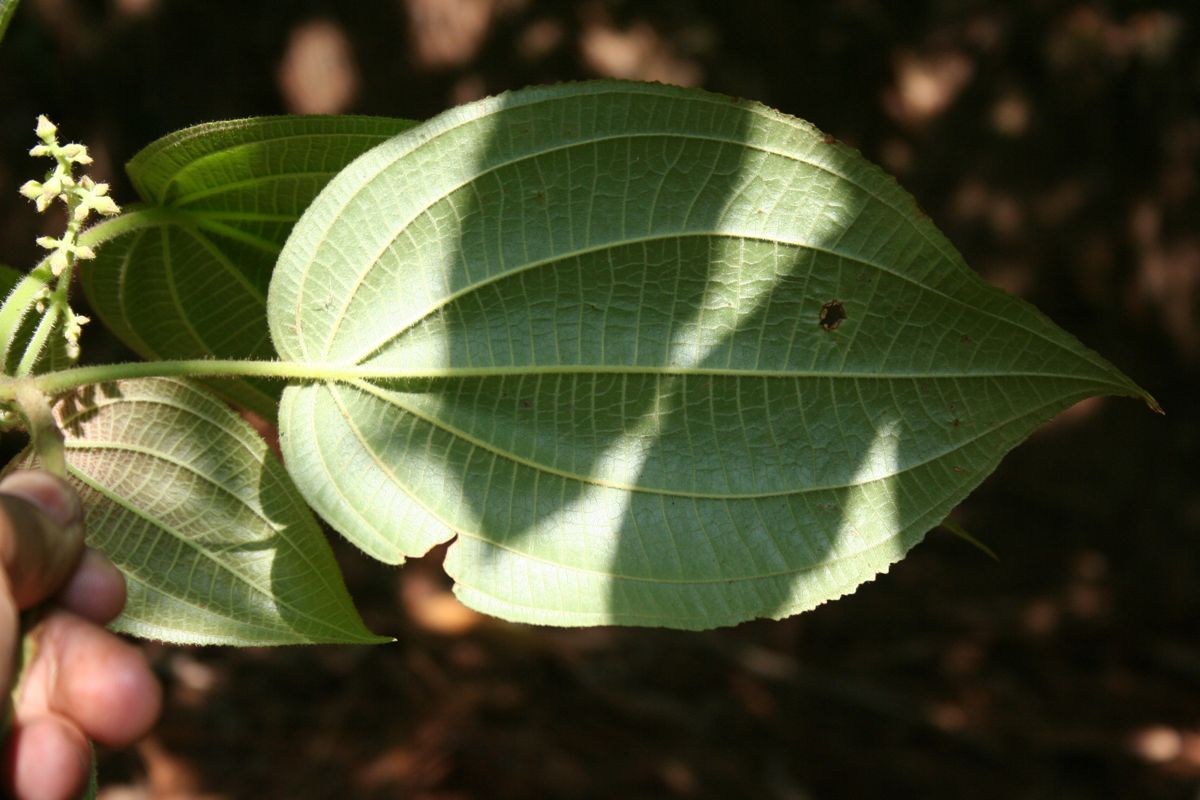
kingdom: Plantae
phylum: Tracheophyta
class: Magnoliopsida
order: Myrtales
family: Myrtaceae
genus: Eugenia
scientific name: Eugenia liesneri
